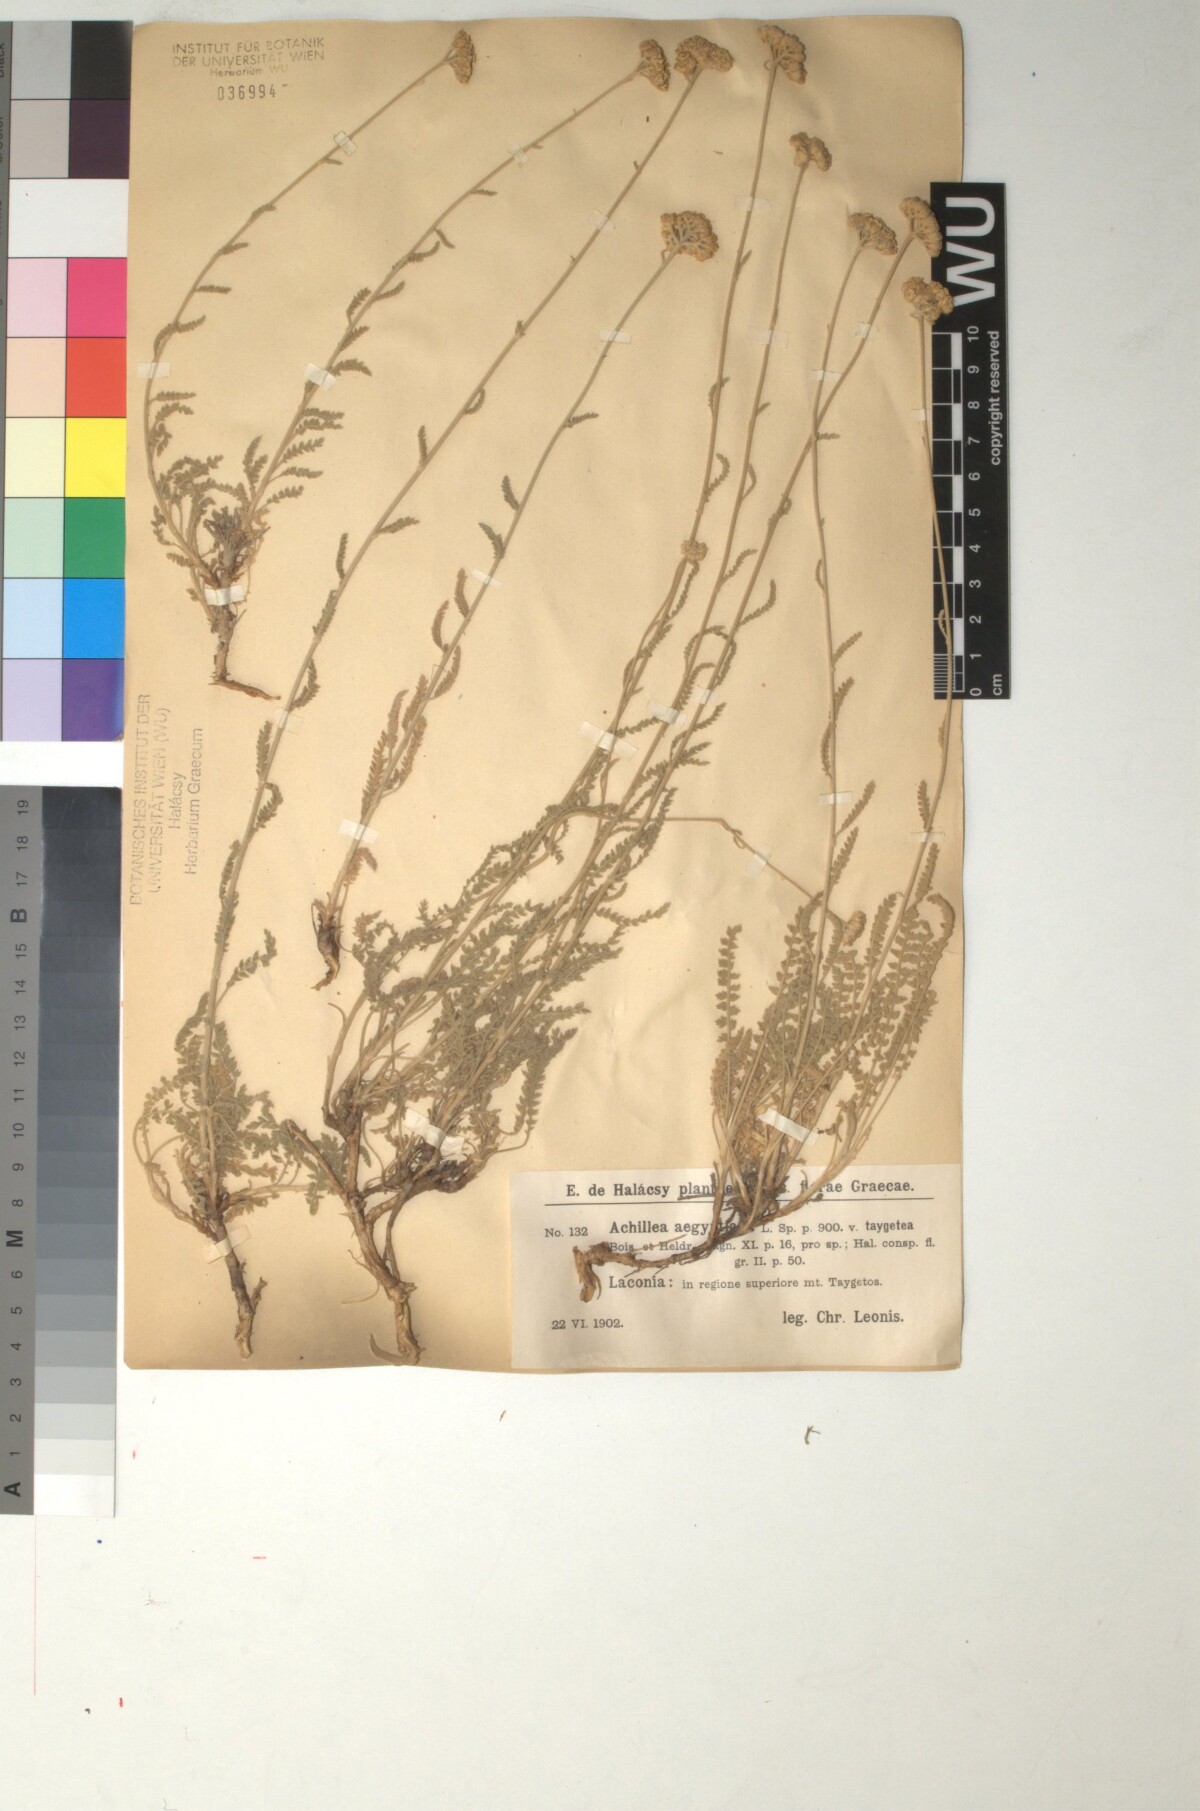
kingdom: Plantae
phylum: Tracheophyta
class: Magnoliopsida
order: Asterales
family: Asteraceae
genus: Achillea
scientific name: Achillea taygetea
